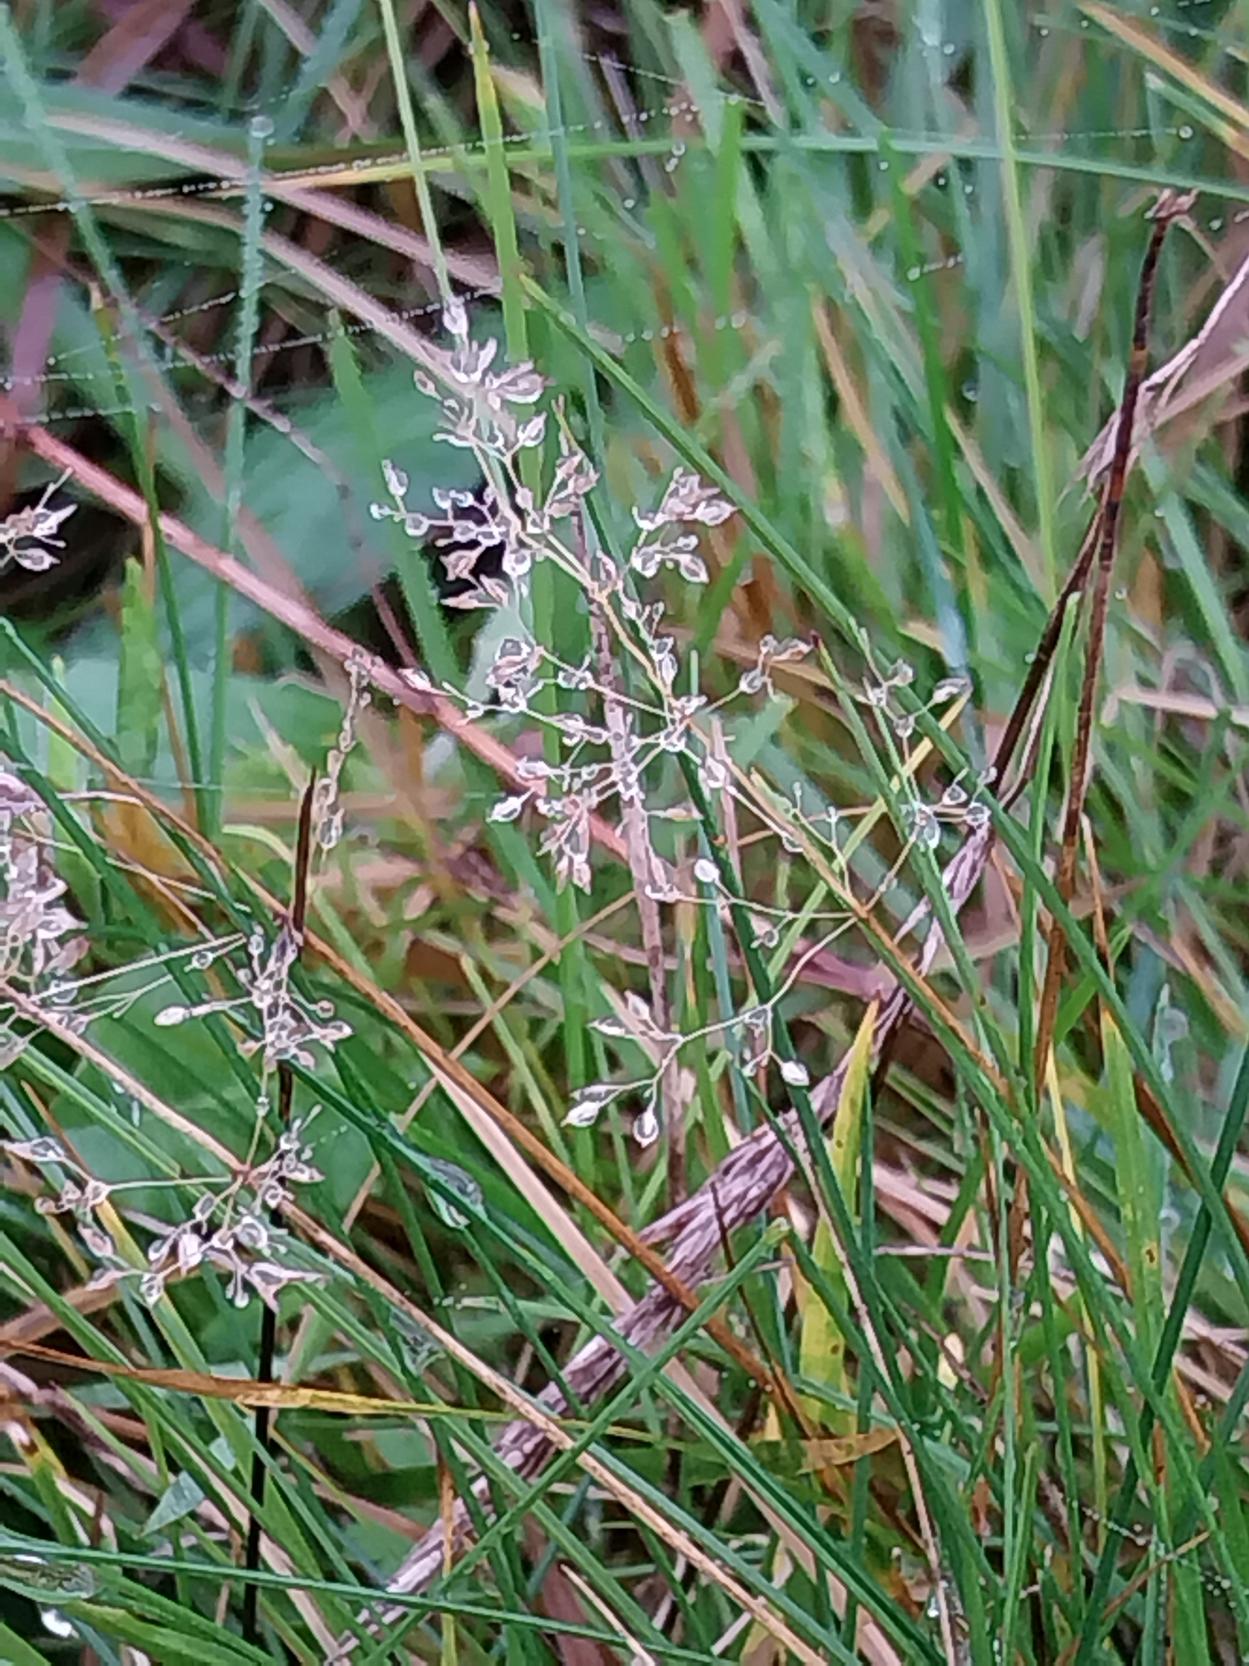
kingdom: Plantae
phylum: Tracheophyta
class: Liliopsida
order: Poales
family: Poaceae
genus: Agrostis
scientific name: Agrostis capillaris
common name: Almindelig hvene
